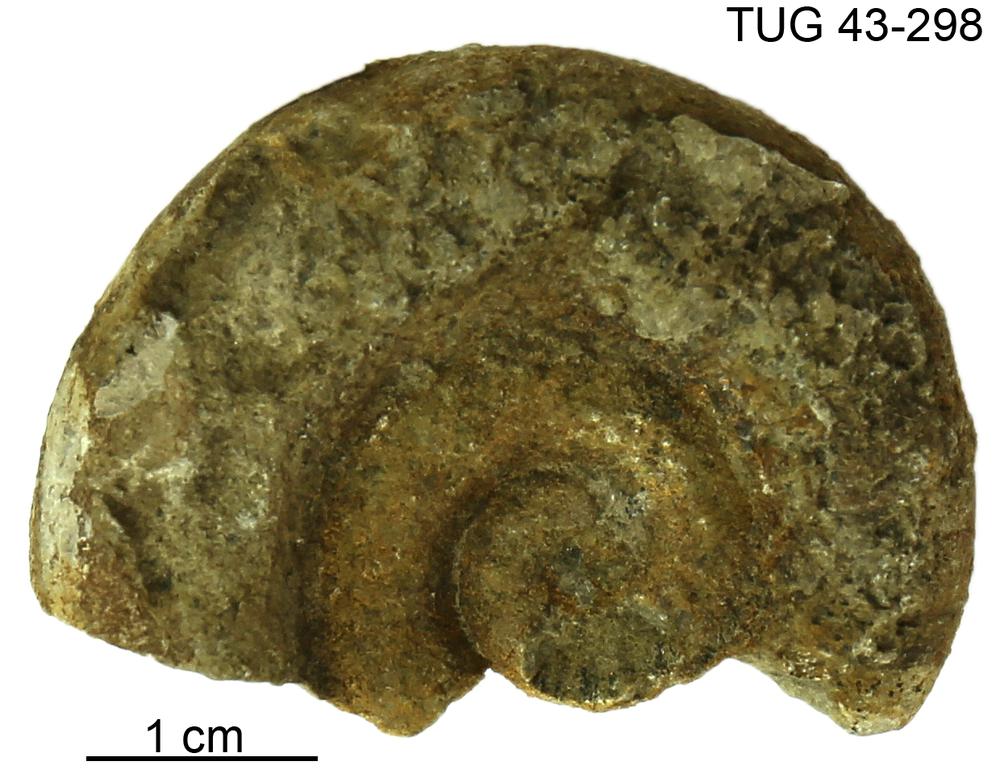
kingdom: Animalia
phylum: Mollusca
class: Cephalopoda
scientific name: Cephalopoda
